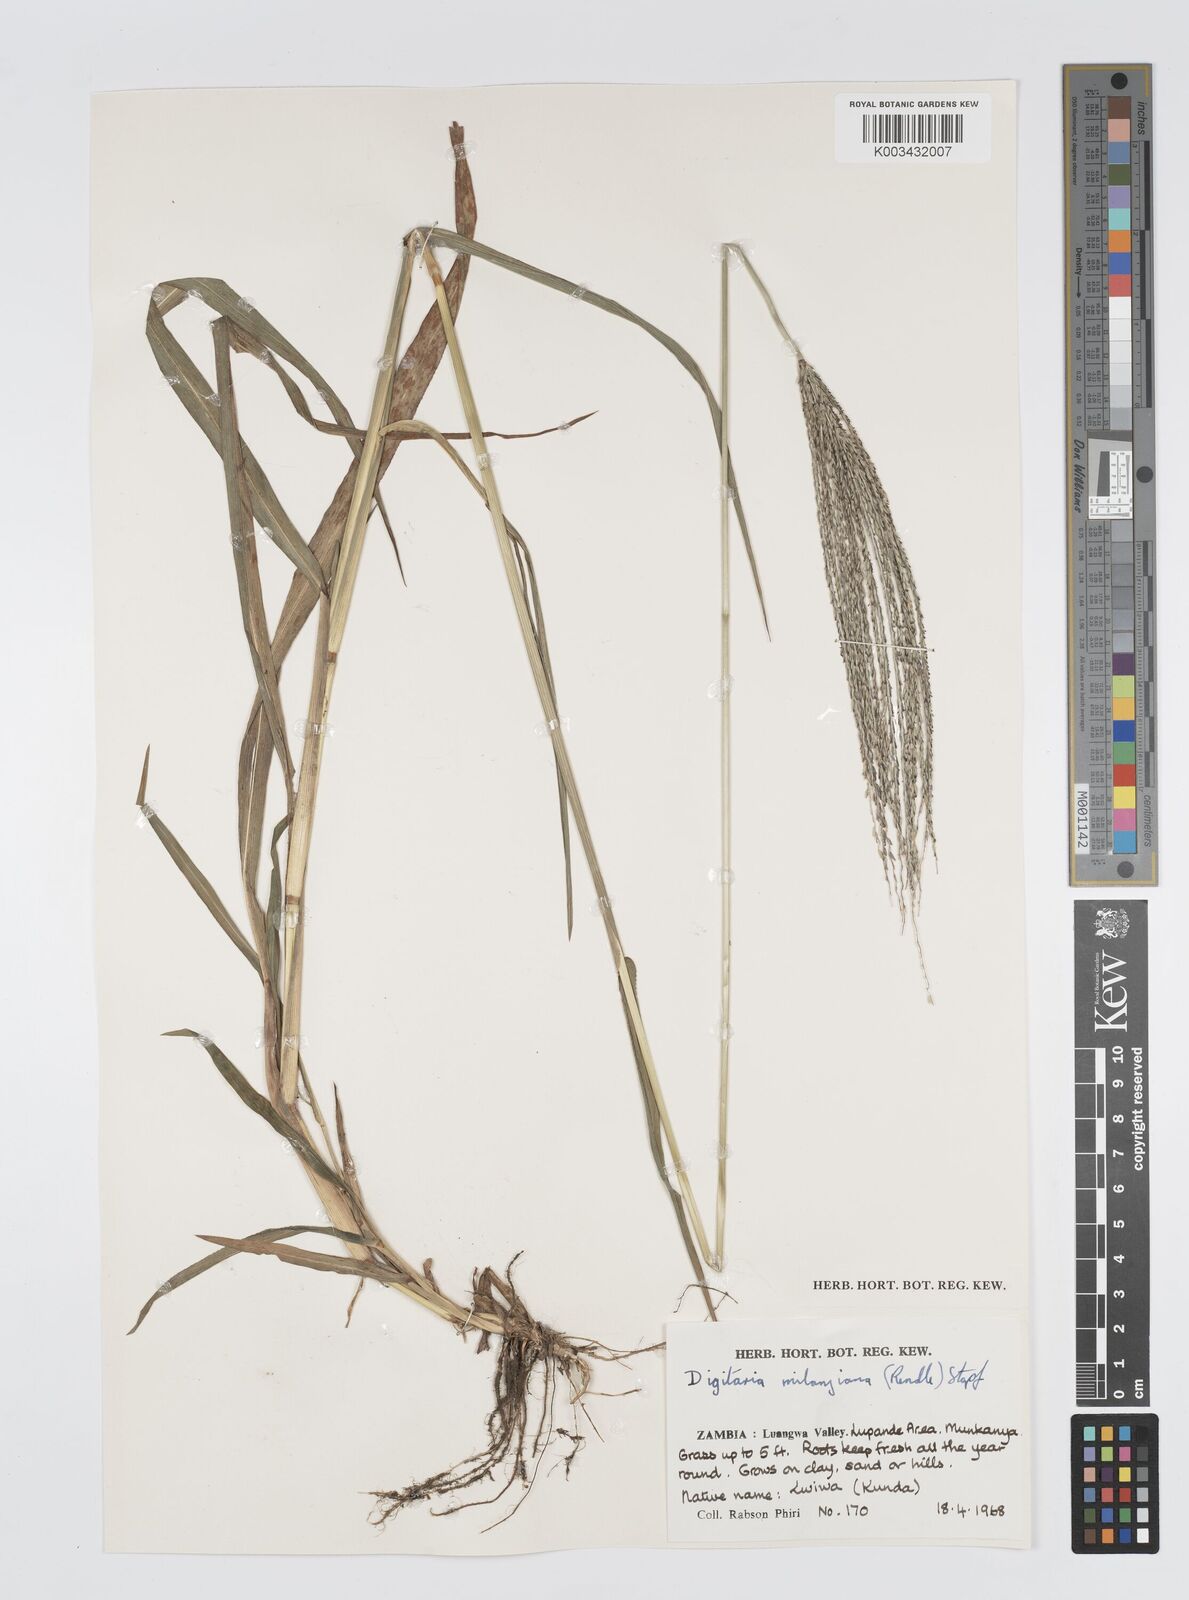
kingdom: Plantae
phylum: Tracheophyta
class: Liliopsida
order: Poales
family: Poaceae
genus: Digitaria
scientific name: Digitaria milanjiana
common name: Madagascar crabgrass
